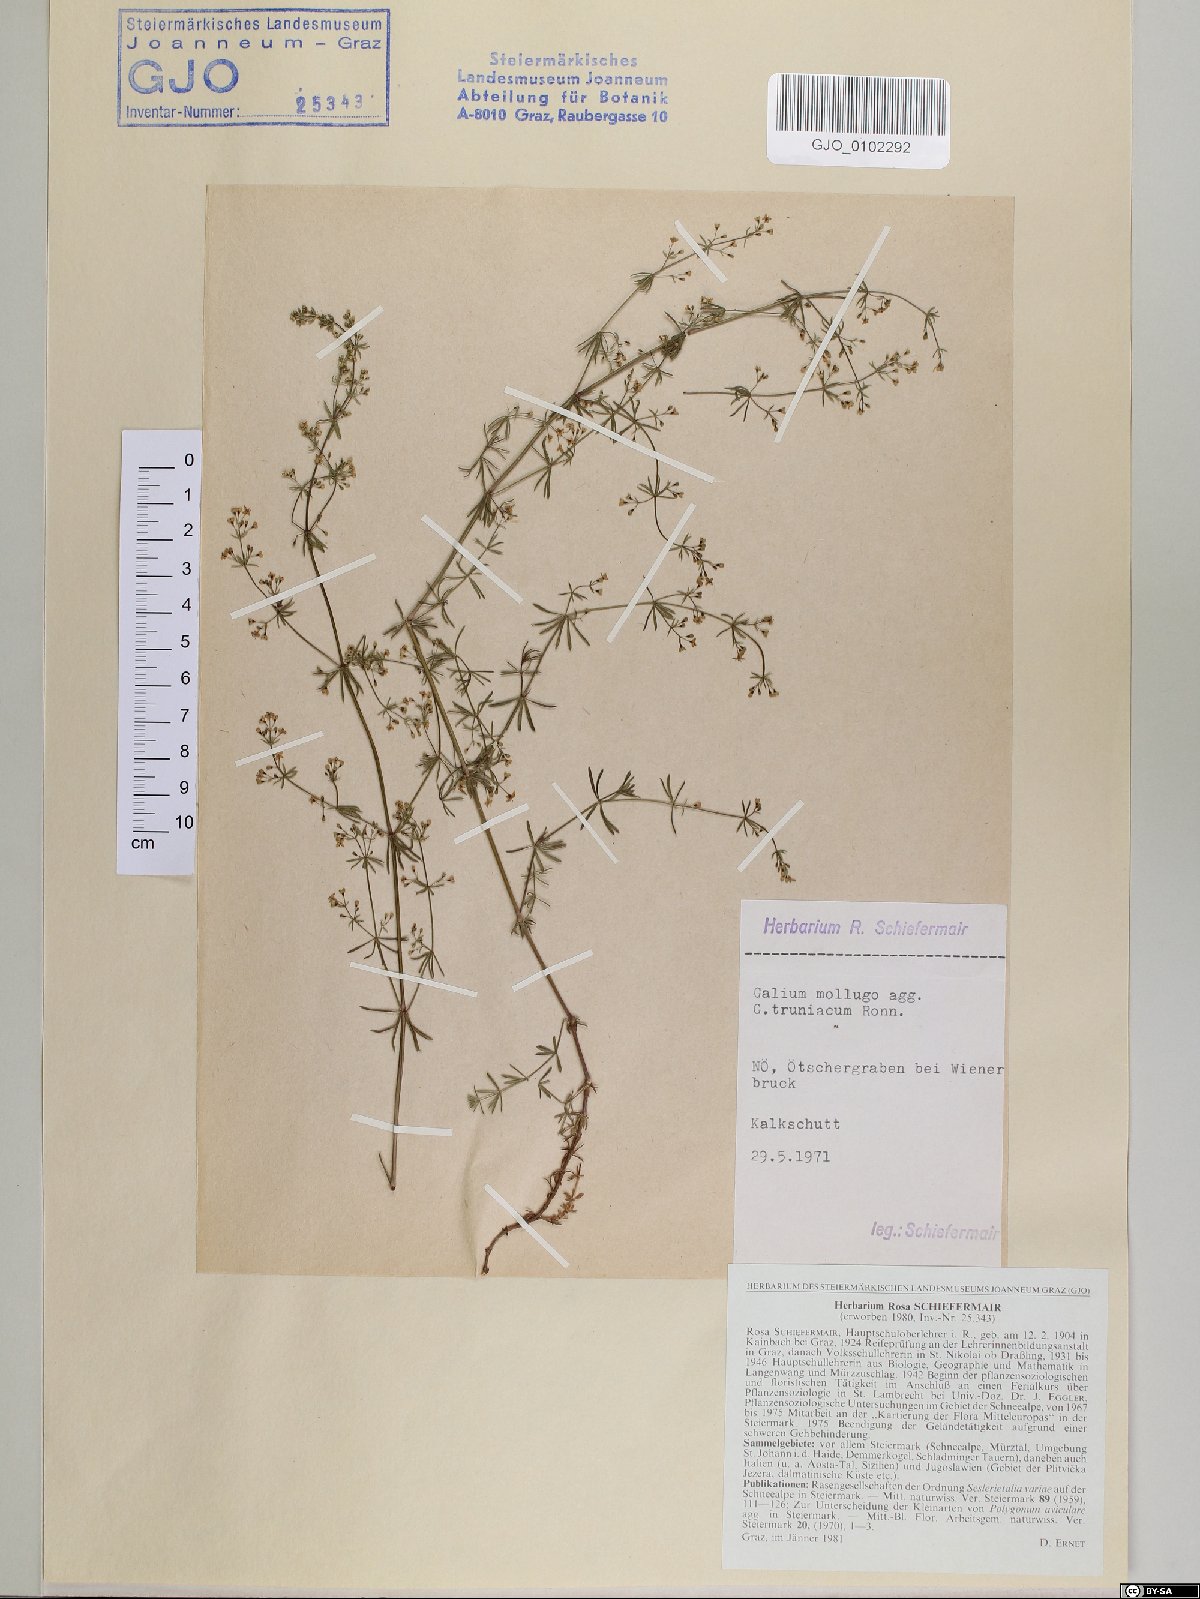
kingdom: Plantae
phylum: Tracheophyta
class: Magnoliopsida
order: Gentianales
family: Rubiaceae
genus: Galium
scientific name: Galium truniacum
